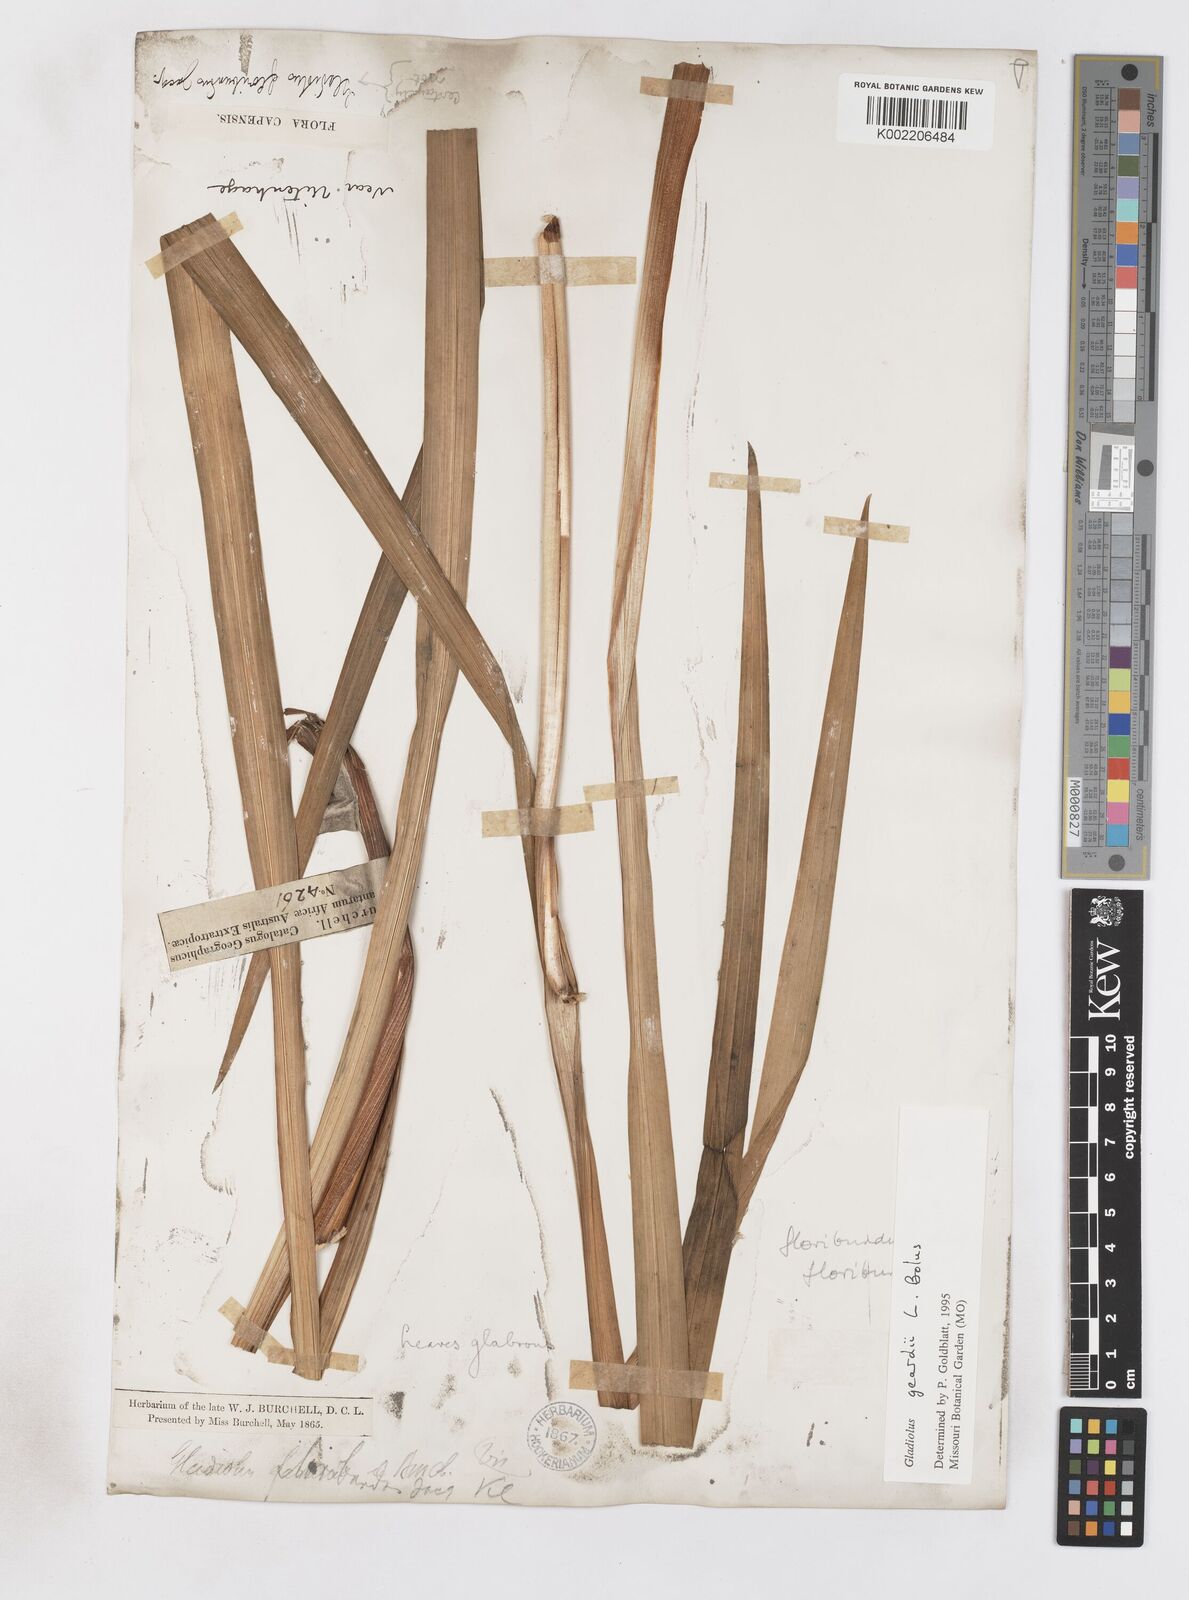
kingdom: Plantae
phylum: Tracheophyta
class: Liliopsida
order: Asparagales
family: Iridaceae
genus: Gladiolus
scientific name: Gladiolus geardii
